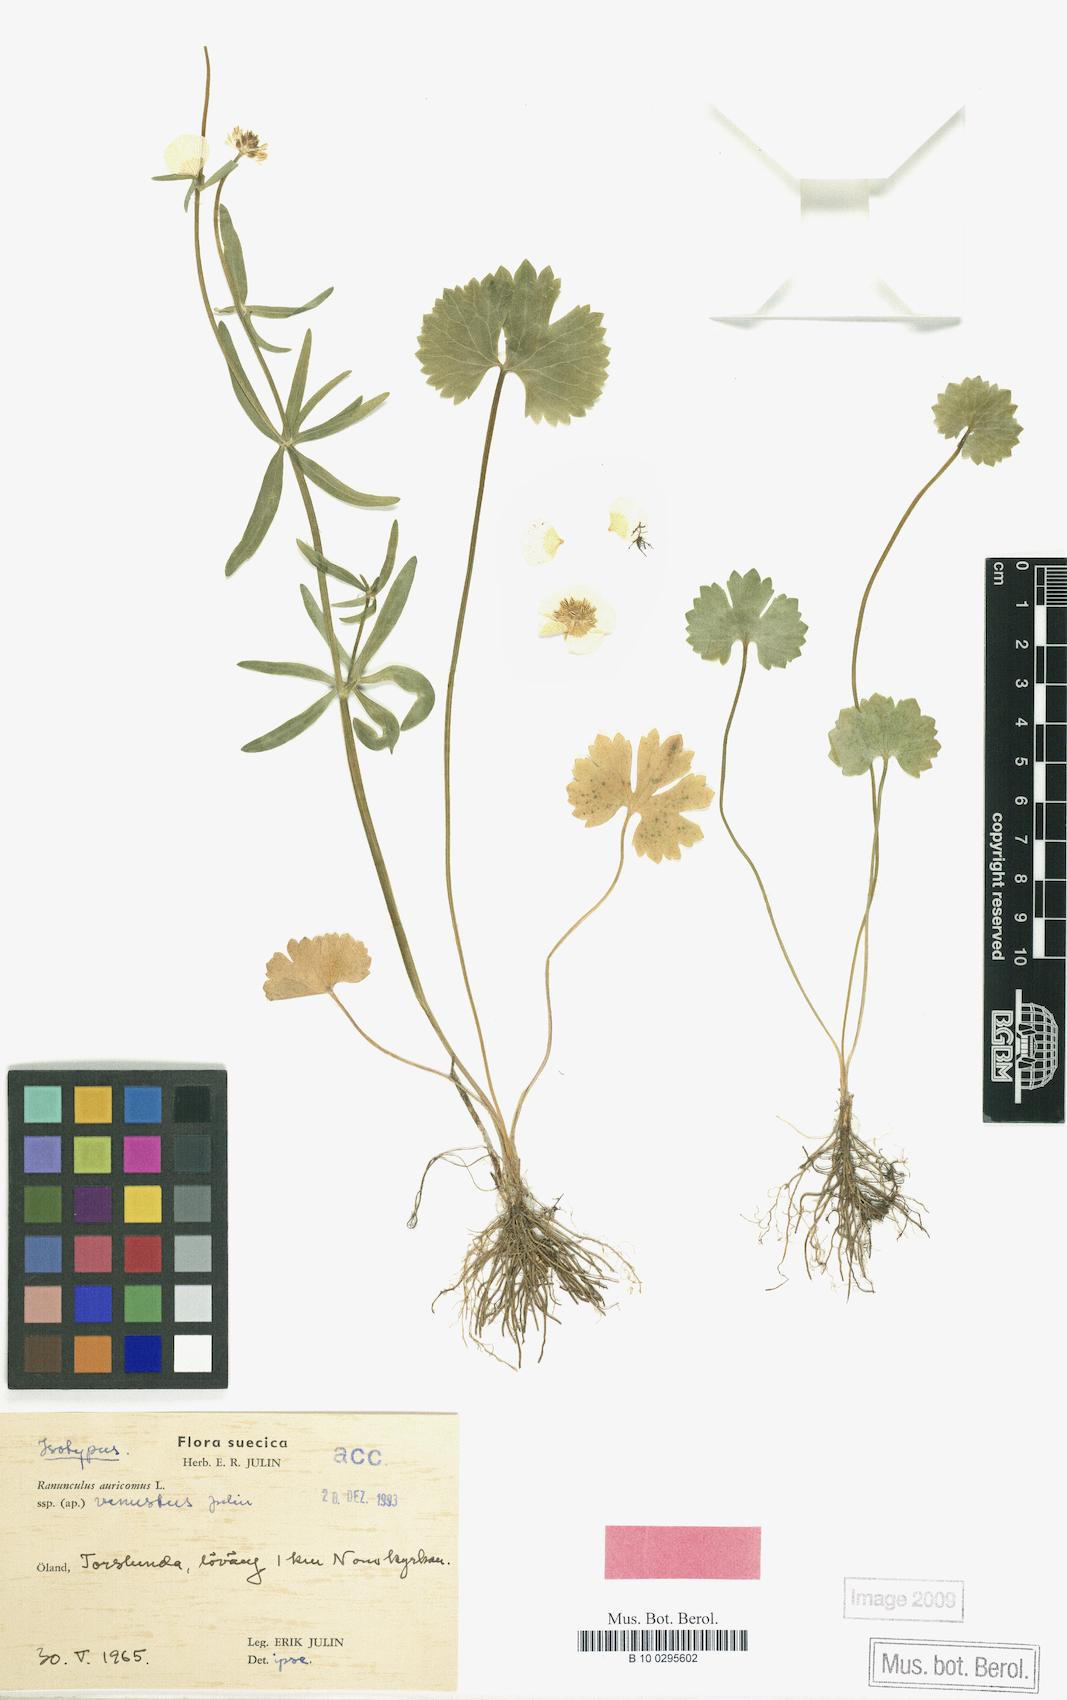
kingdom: Plantae
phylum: Tracheophyta
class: Magnoliopsida
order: Ranunculales
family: Ranunculaceae
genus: Ranunculus
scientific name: Ranunculus venustus
